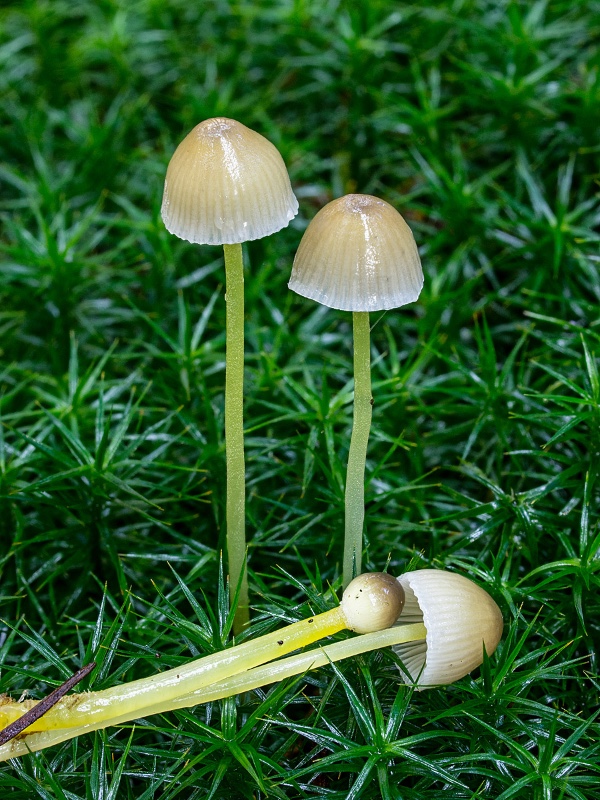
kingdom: Fungi
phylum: Basidiomycota
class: Agaricomycetes
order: Agaricales
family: Mycenaceae
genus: Mycena
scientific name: Mycena epipterygia
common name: gulstokket huesvamp
